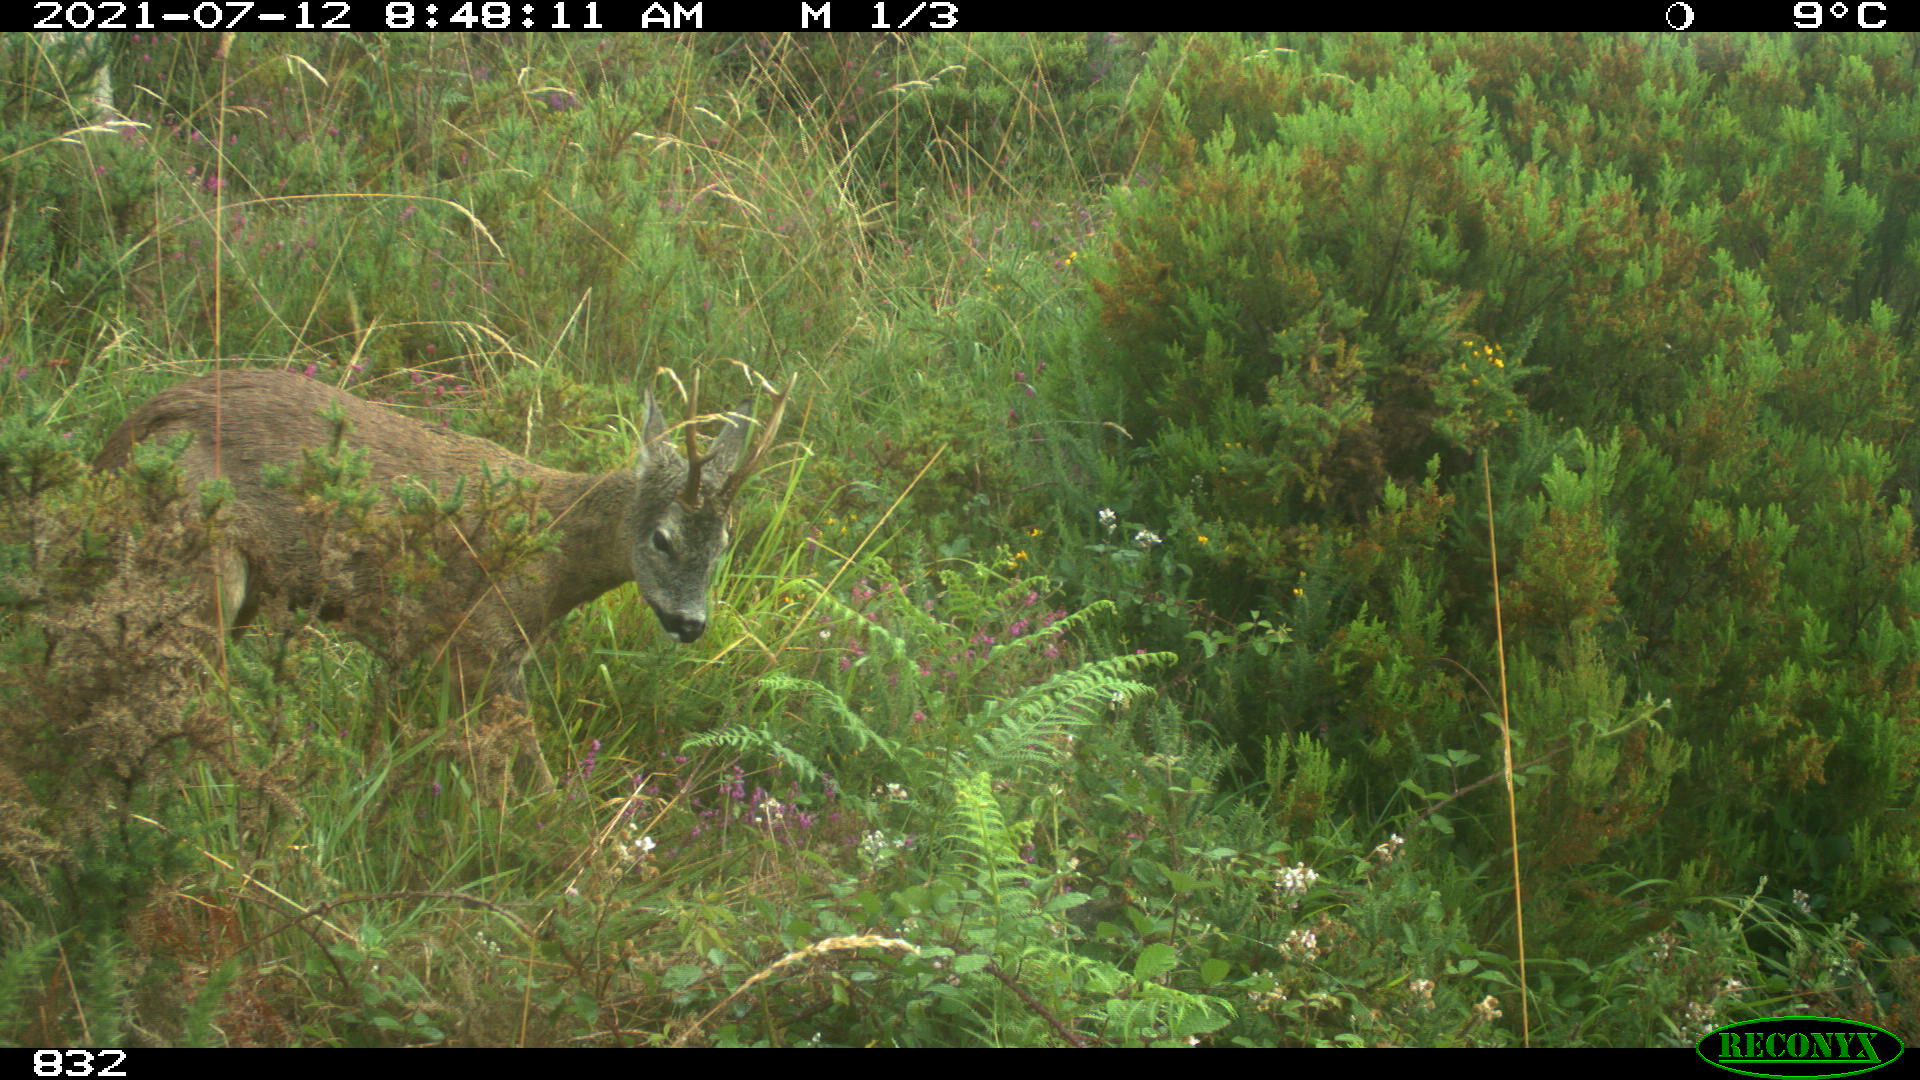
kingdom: Animalia
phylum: Chordata
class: Mammalia
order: Artiodactyla
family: Cervidae
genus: Capreolus
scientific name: Capreolus capreolus
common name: Western roe deer
